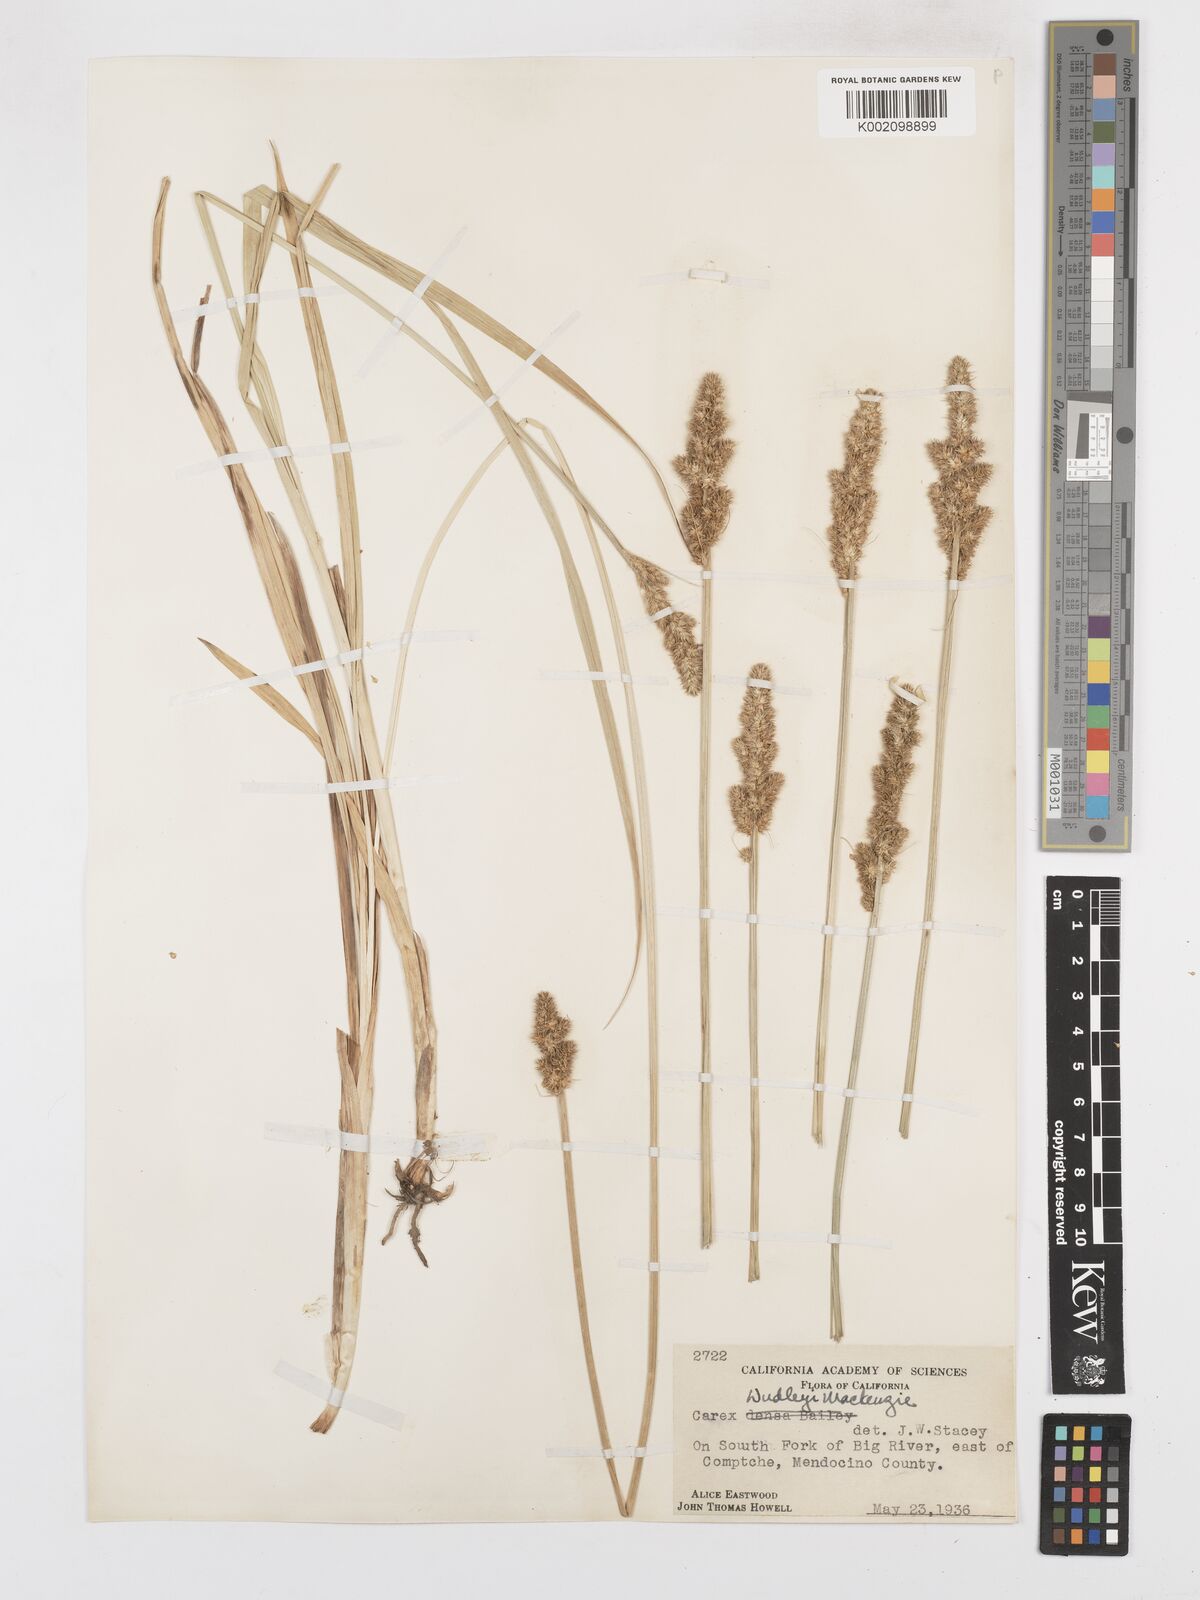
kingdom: Plantae
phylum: Tracheophyta
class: Liliopsida
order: Poales
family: Cyperaceae
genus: Carex
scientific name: Carex densa
